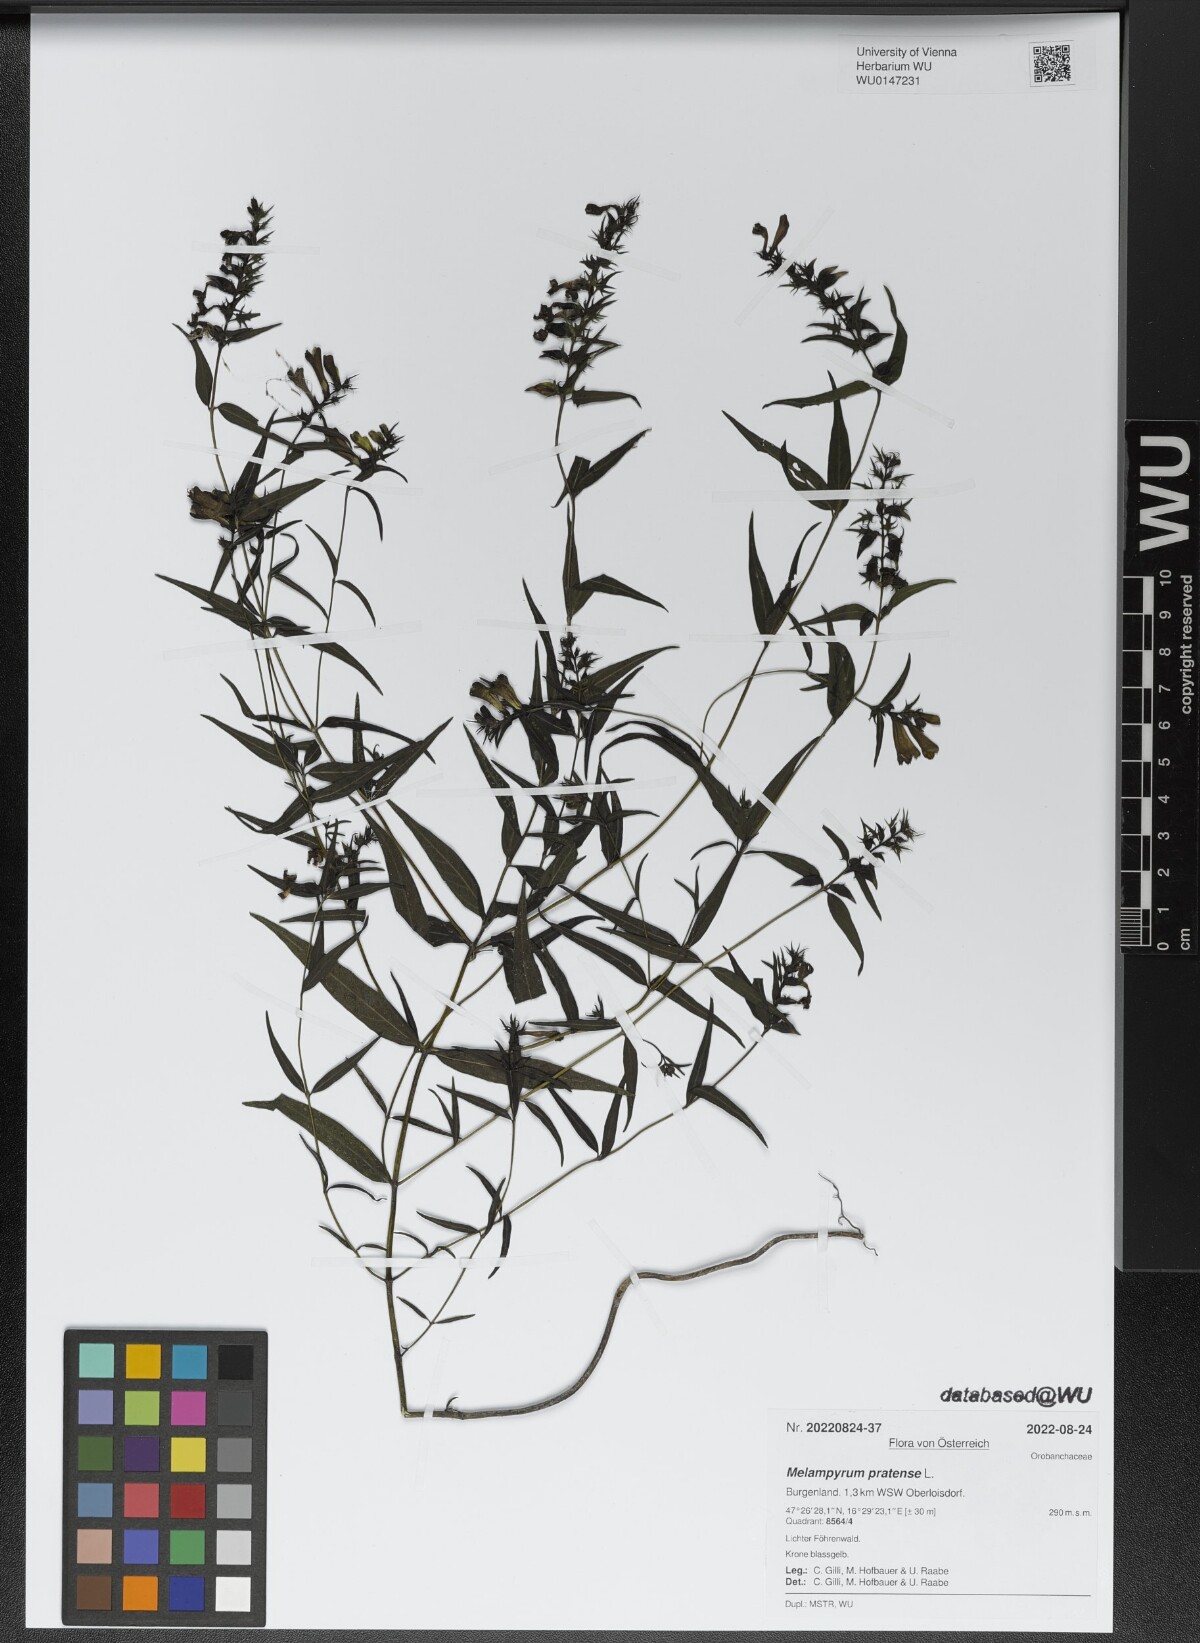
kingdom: Plantae
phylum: Tracheophyta
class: Magnoliopsida
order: Lamiales
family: Orobanchaceae
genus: Melampyrum
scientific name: Melampyrum pratense
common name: Common cow-wheat
